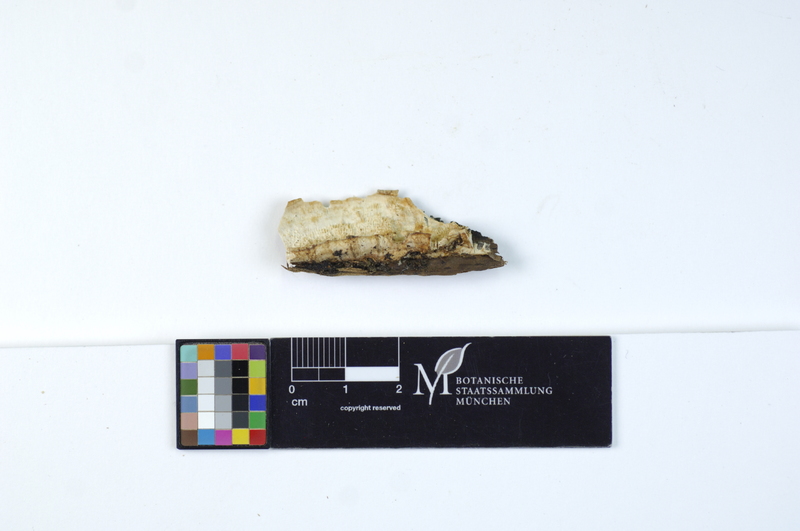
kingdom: Fungi
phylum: Basidiomycota
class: Agaricomycetes
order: Polyporales
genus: Fuscopostia
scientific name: Fuscopostia leucomallella
